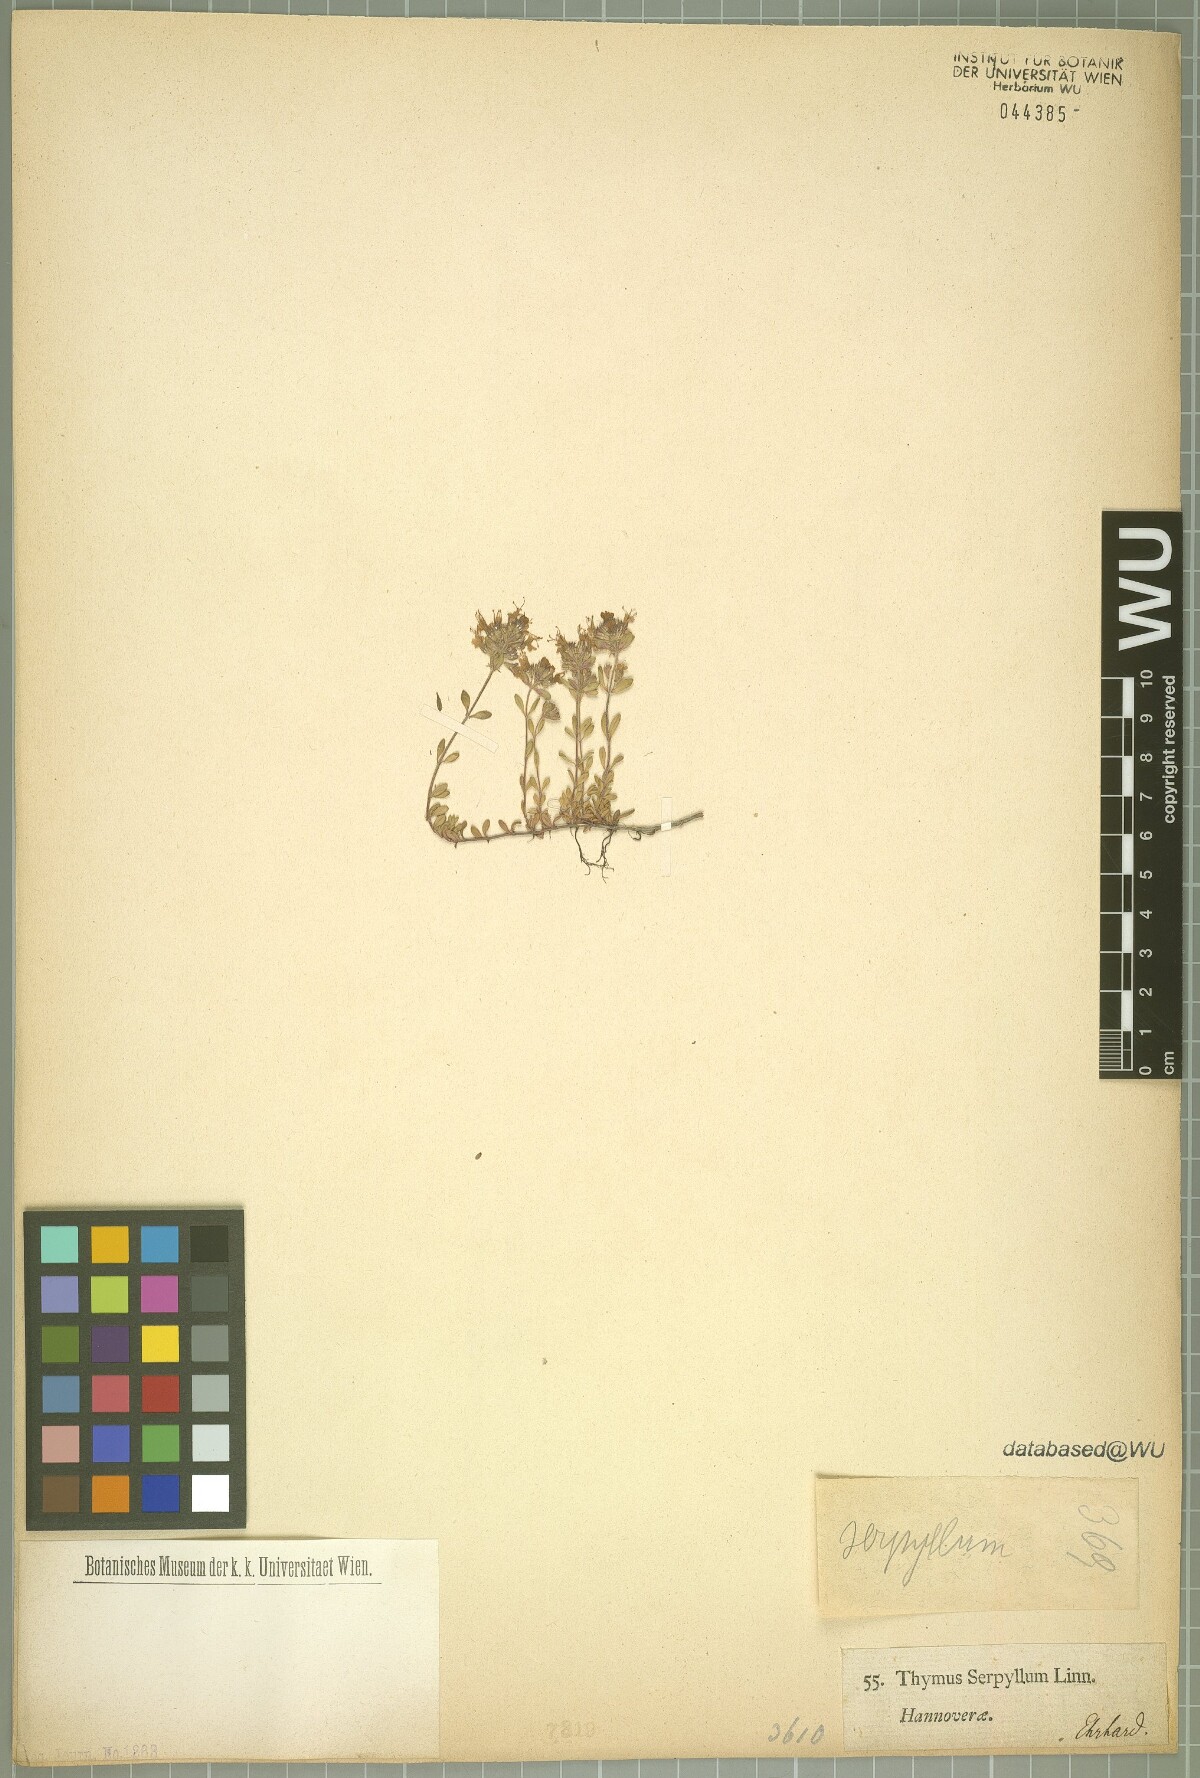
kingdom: Plantae
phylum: Tracheophyta
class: Magnoliopsida
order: Lamiales
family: Lamiaceae
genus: Thymus
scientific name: Thymus serpyllum
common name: Breckland thyme
